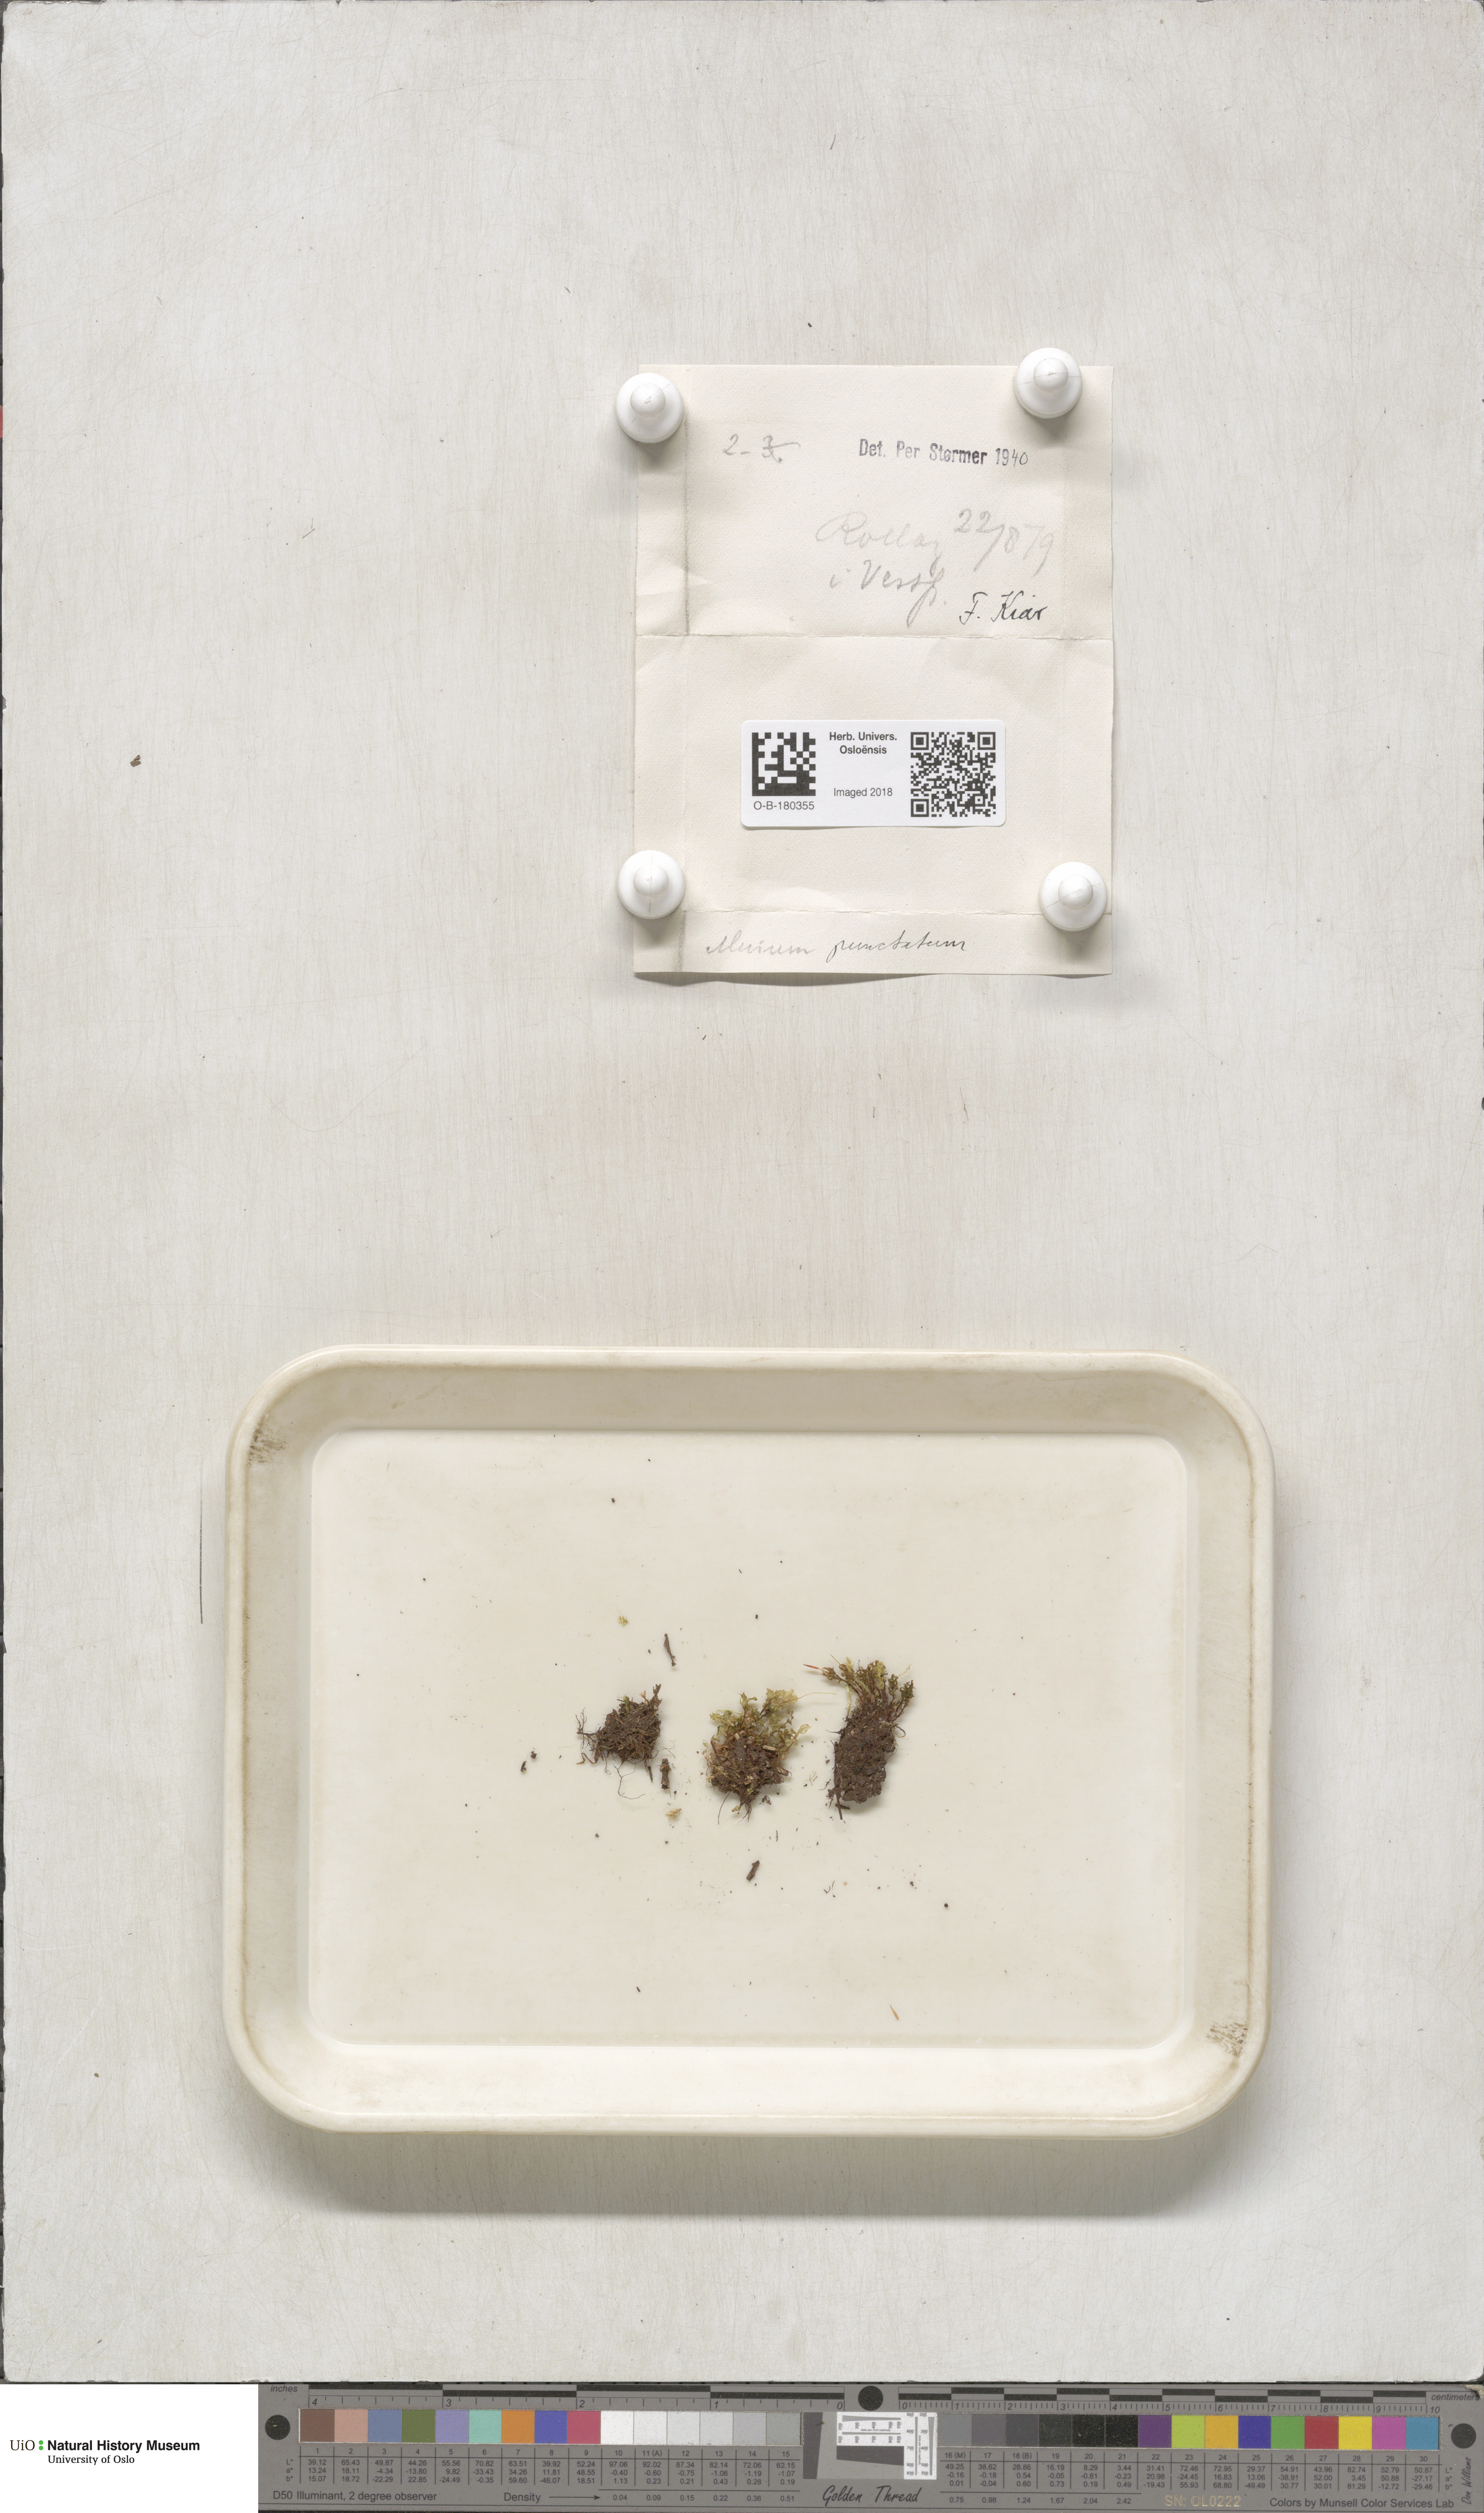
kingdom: Plantae
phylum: Bryophyta
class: Bryopsida
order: Bryales
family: Mniaceae
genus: Rhizomnium
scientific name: Rhizomnium punctatum
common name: Dotted leafy moss
